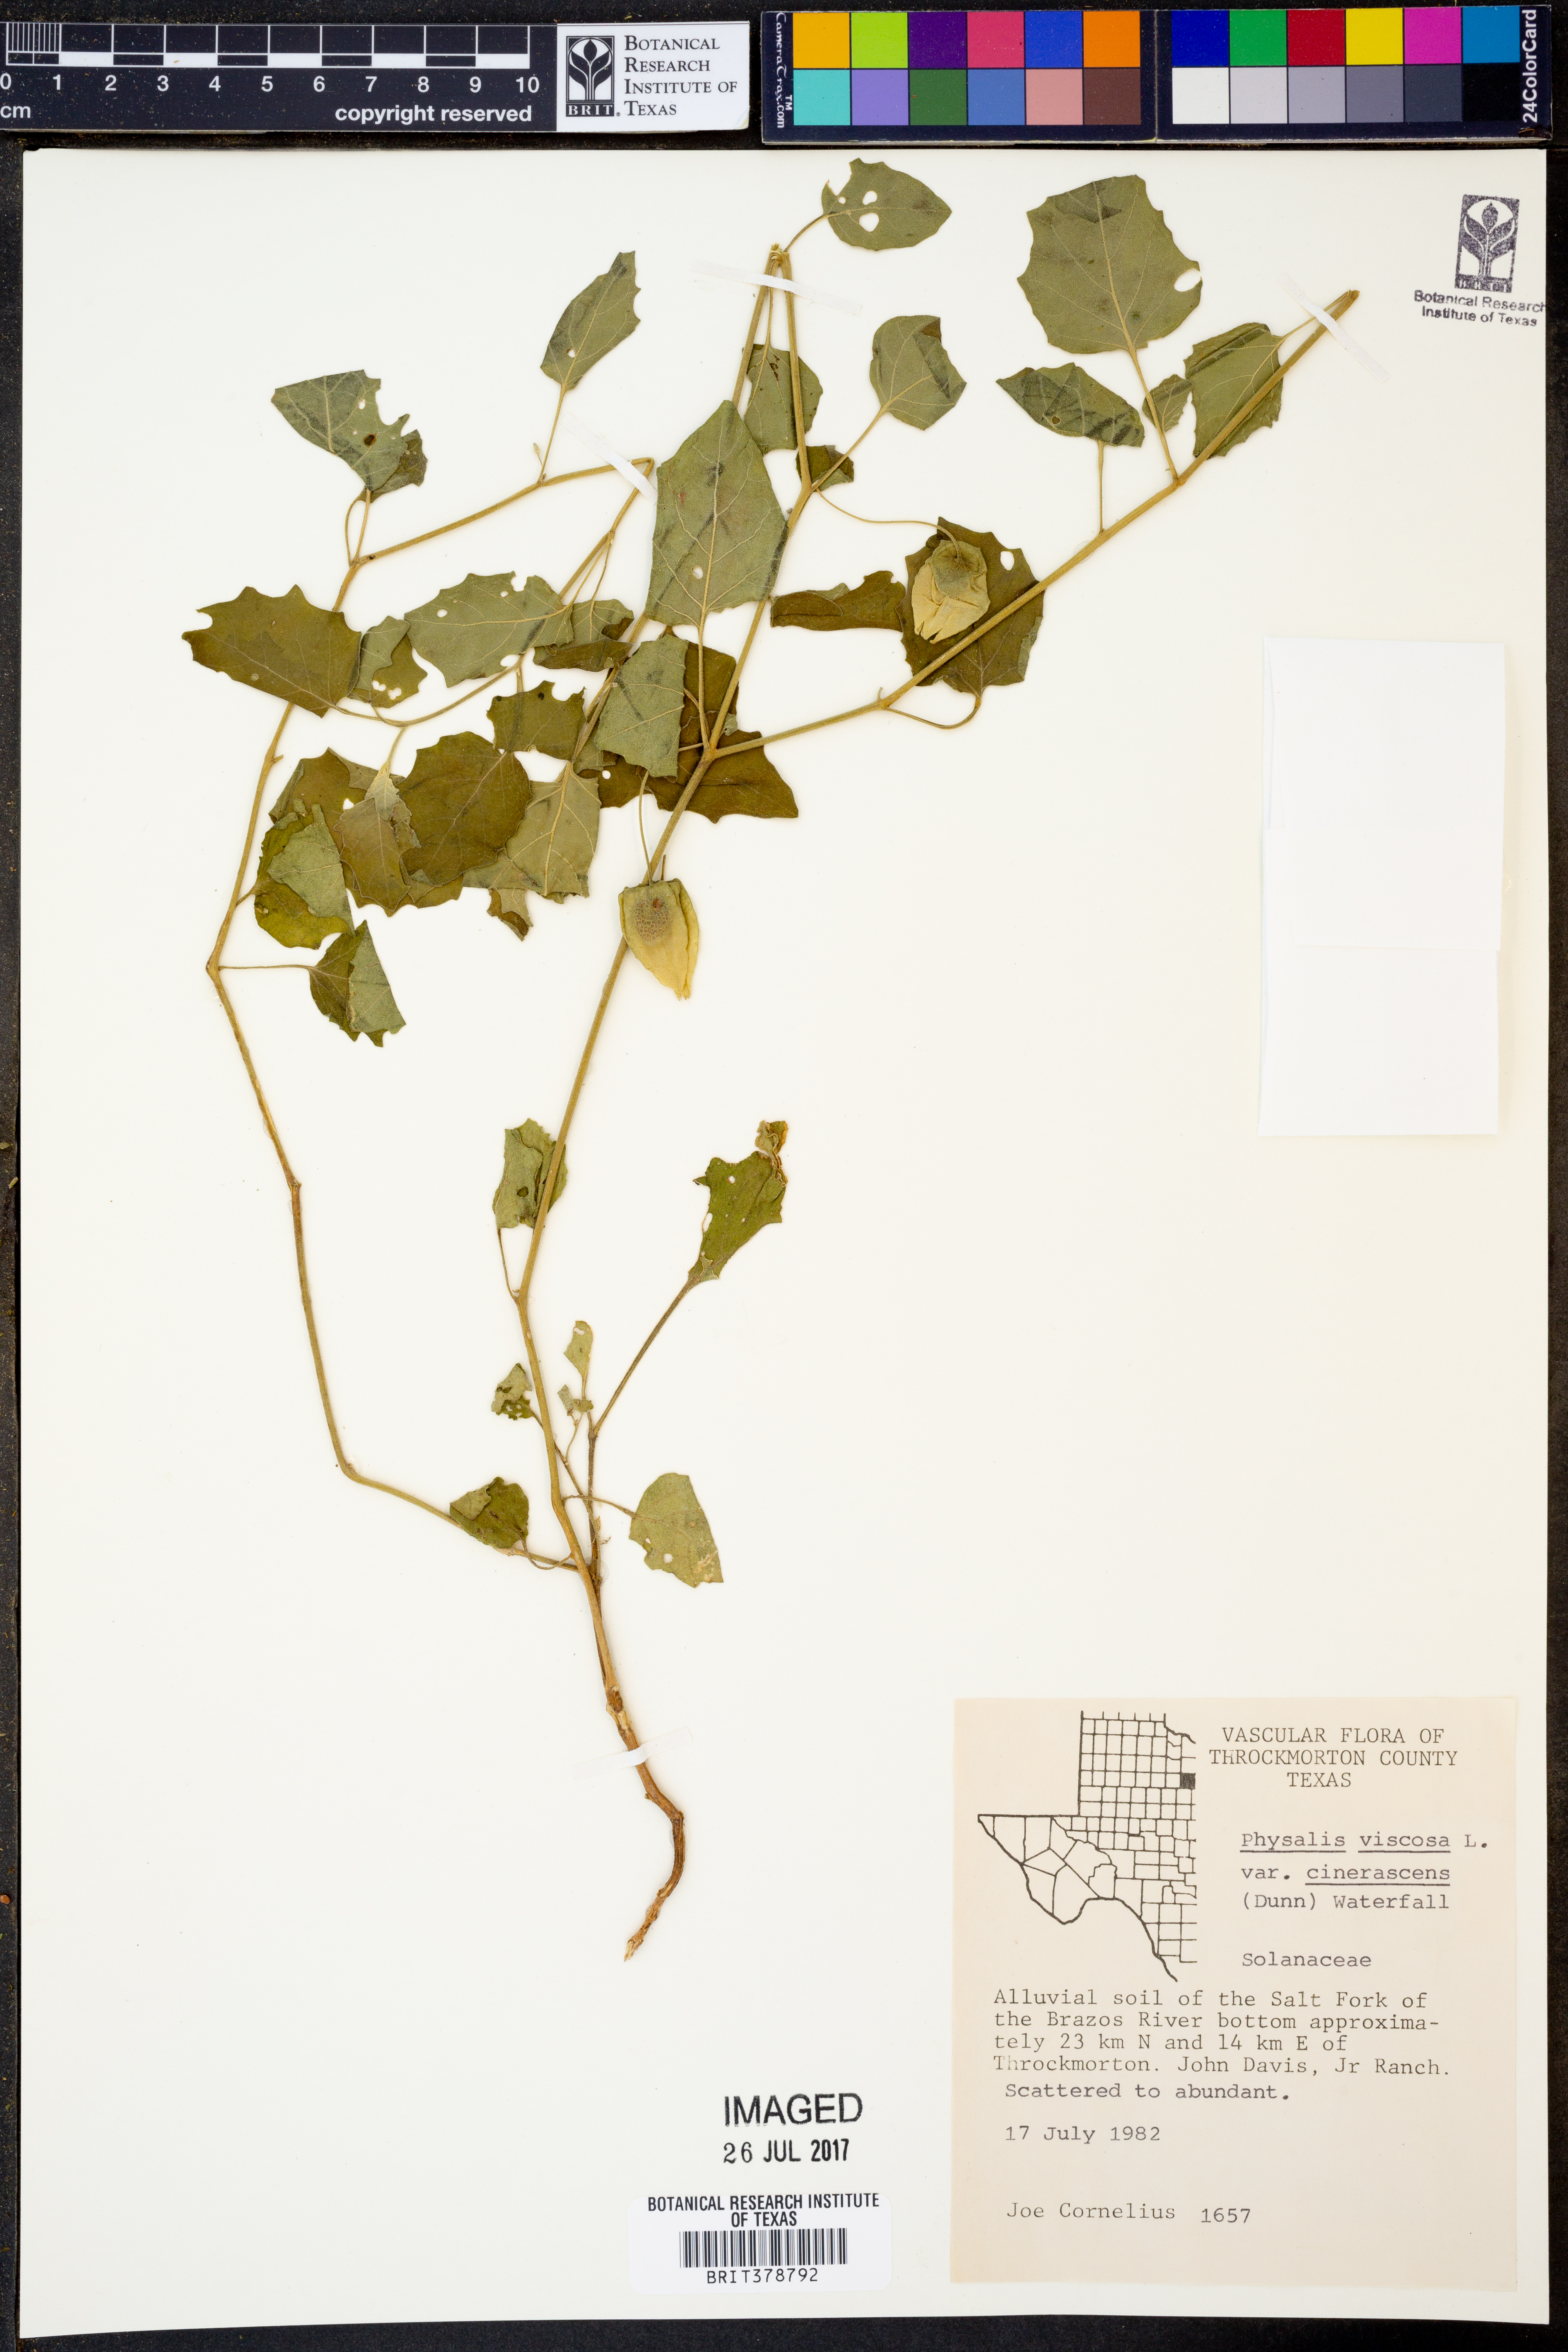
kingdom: Plantae
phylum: Tracheophyta
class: Magnoliopsida
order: Solanales
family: Solanaceae
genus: Physalis
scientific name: Physalis cinerascens
